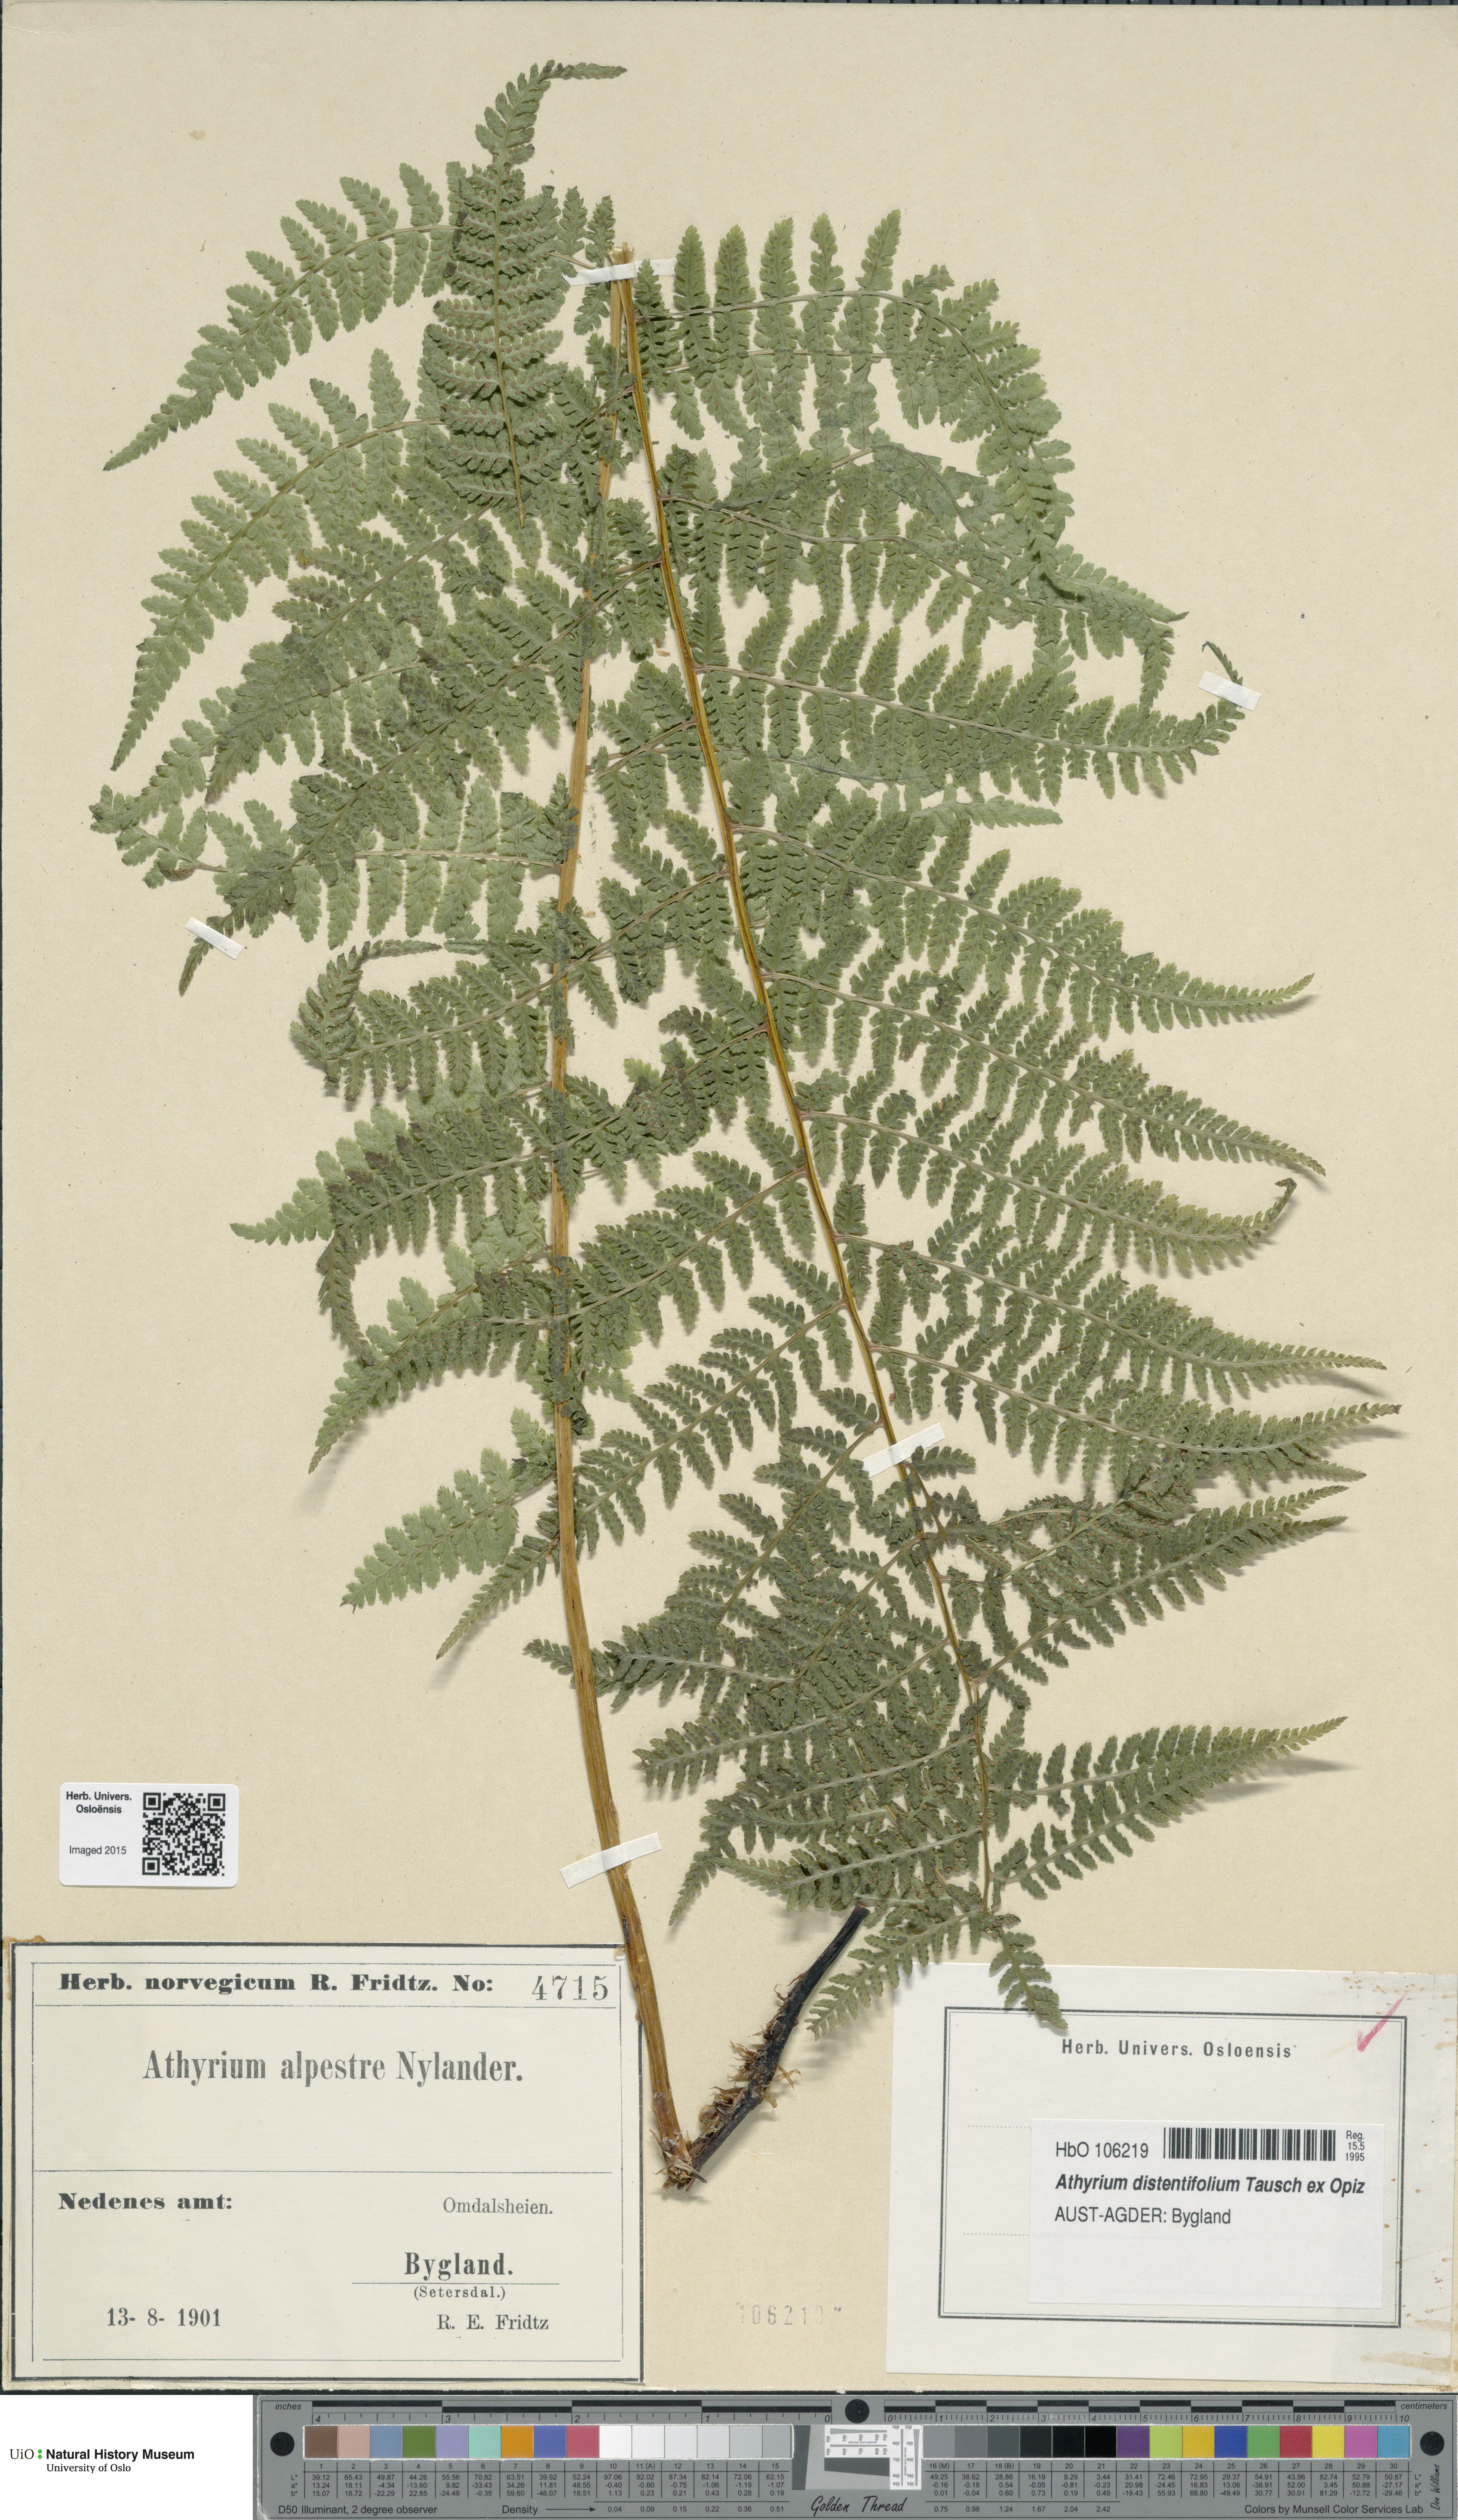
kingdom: Plantae
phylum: Tracheophyta
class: Polypodiopsida
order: Polypodiales
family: Athyriaceae
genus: Pseudathyrium
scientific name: Pseudathyrium alpestre
